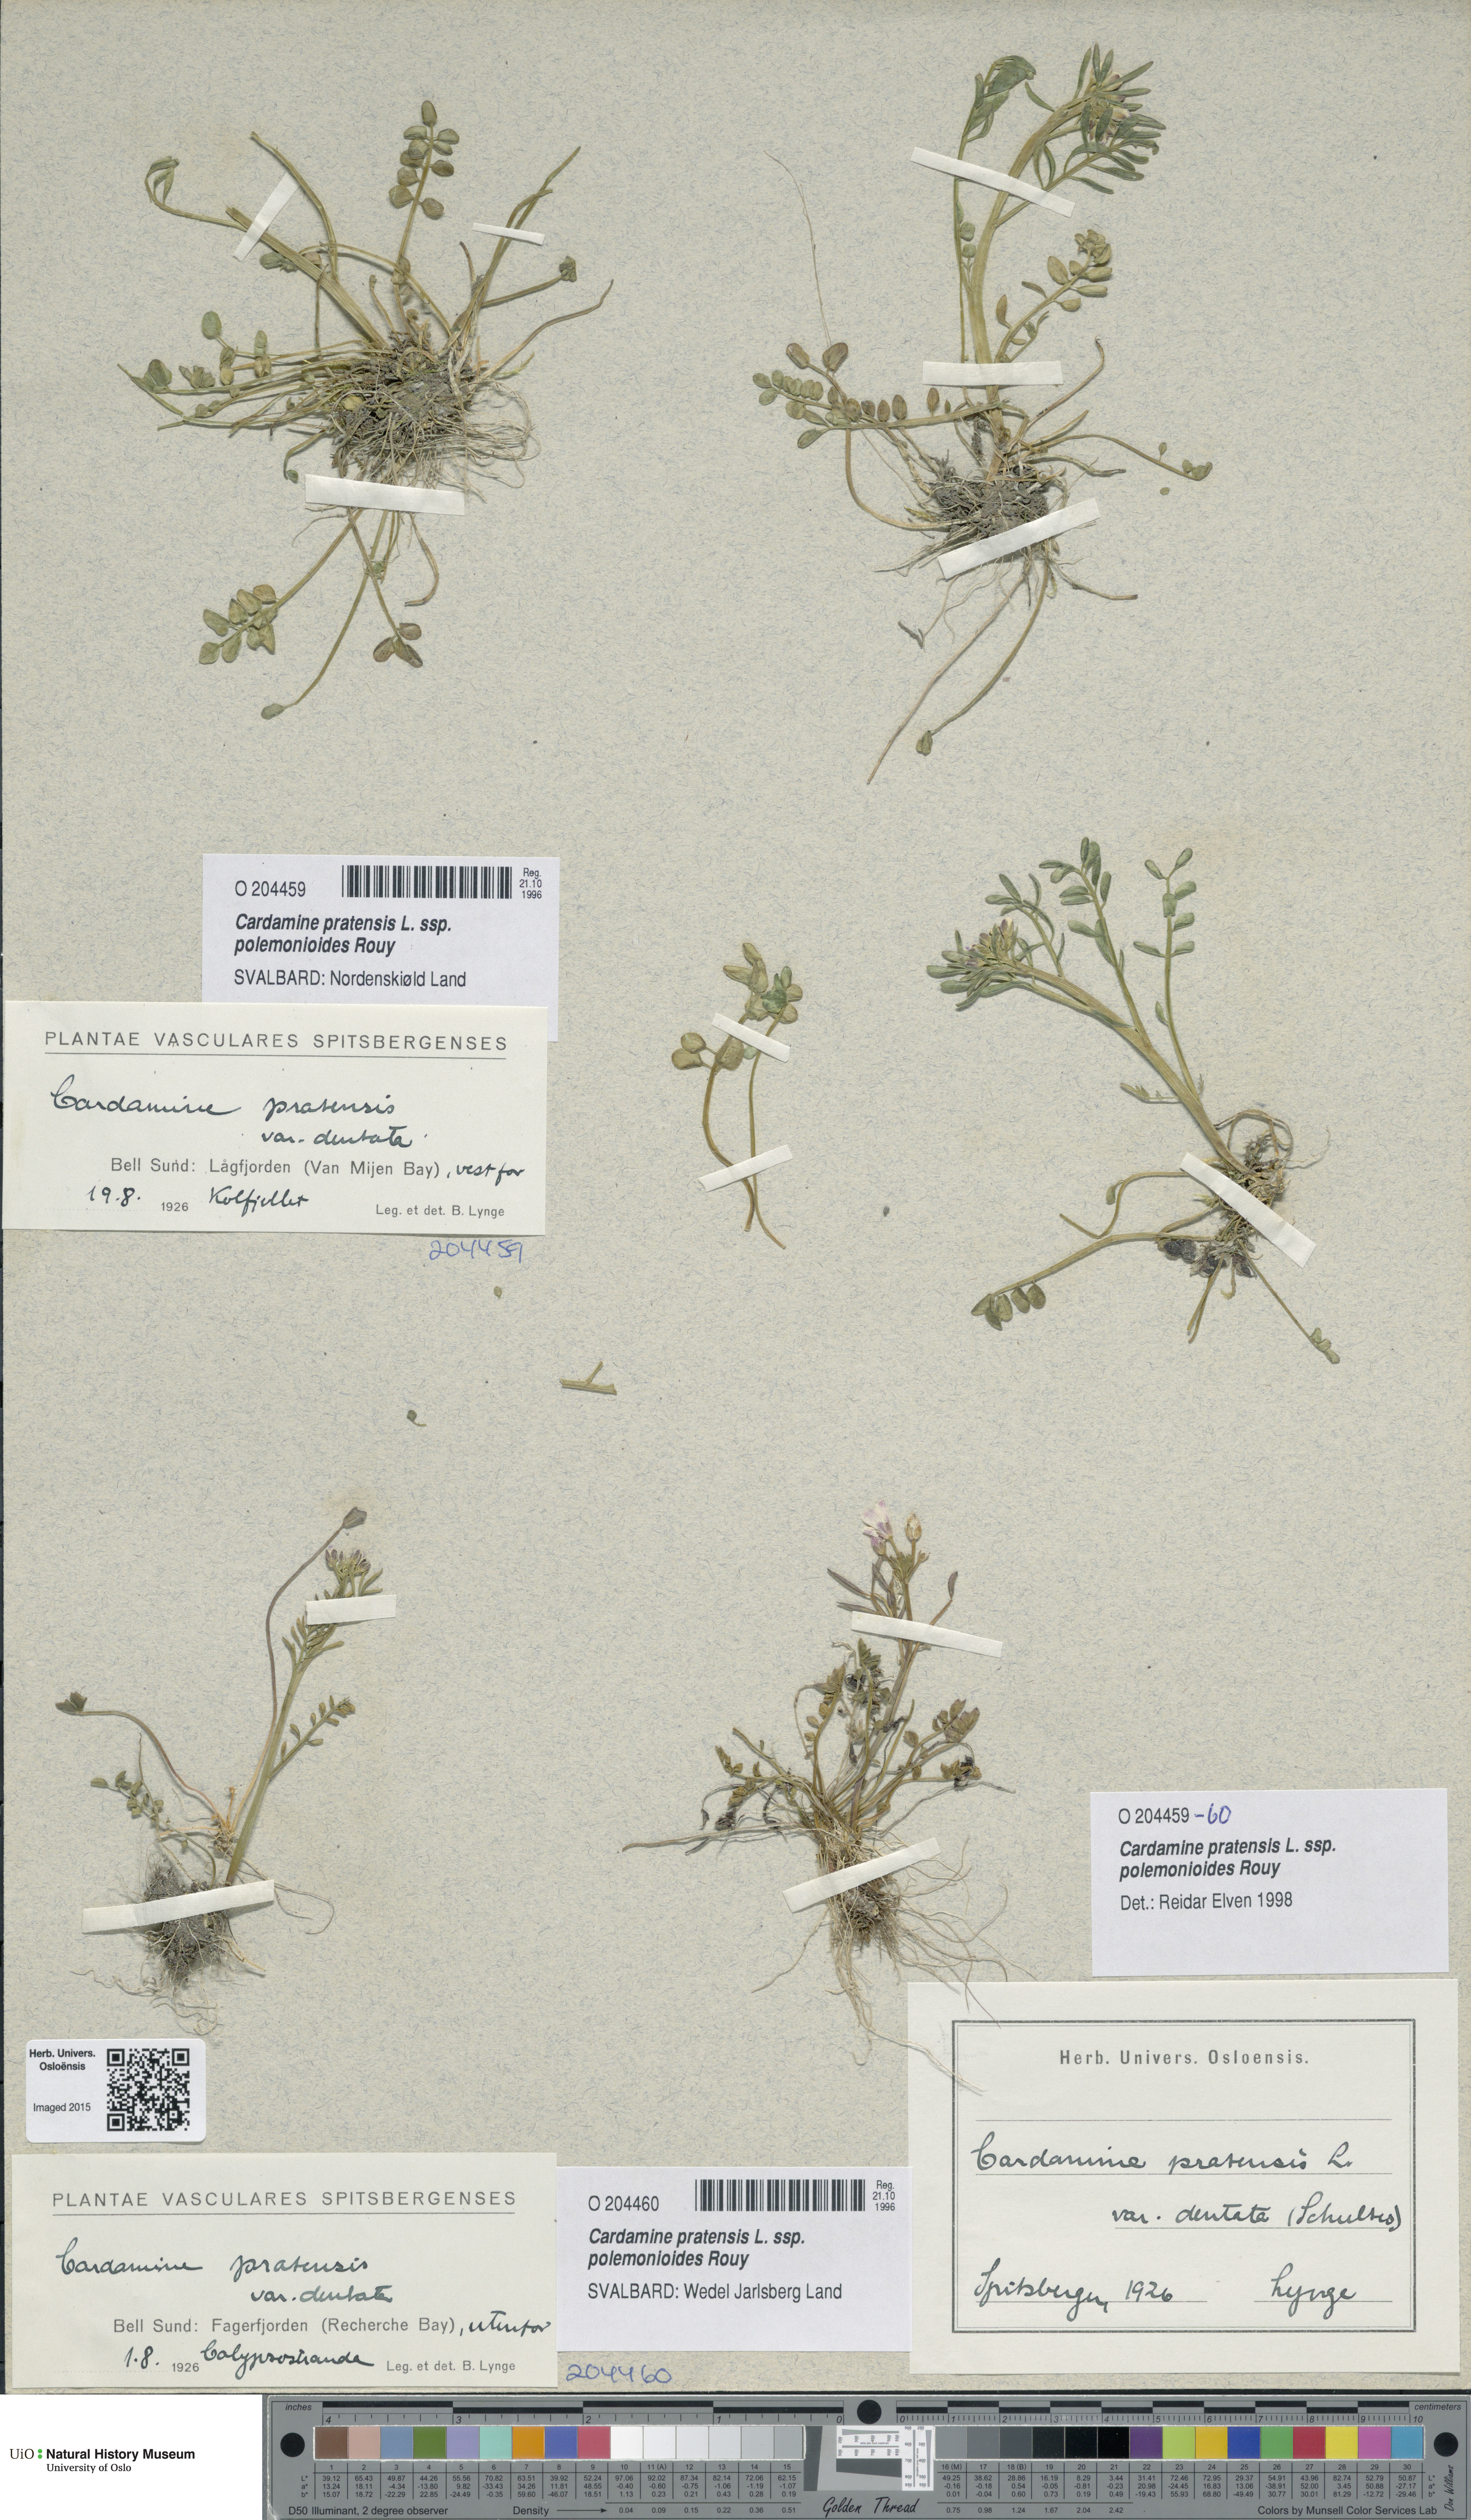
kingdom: Plantae
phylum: Tracheophyta
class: Magnoliopsida
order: Brassicales
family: Brassicaceae
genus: Cardamine
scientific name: Cardamine nymanii
